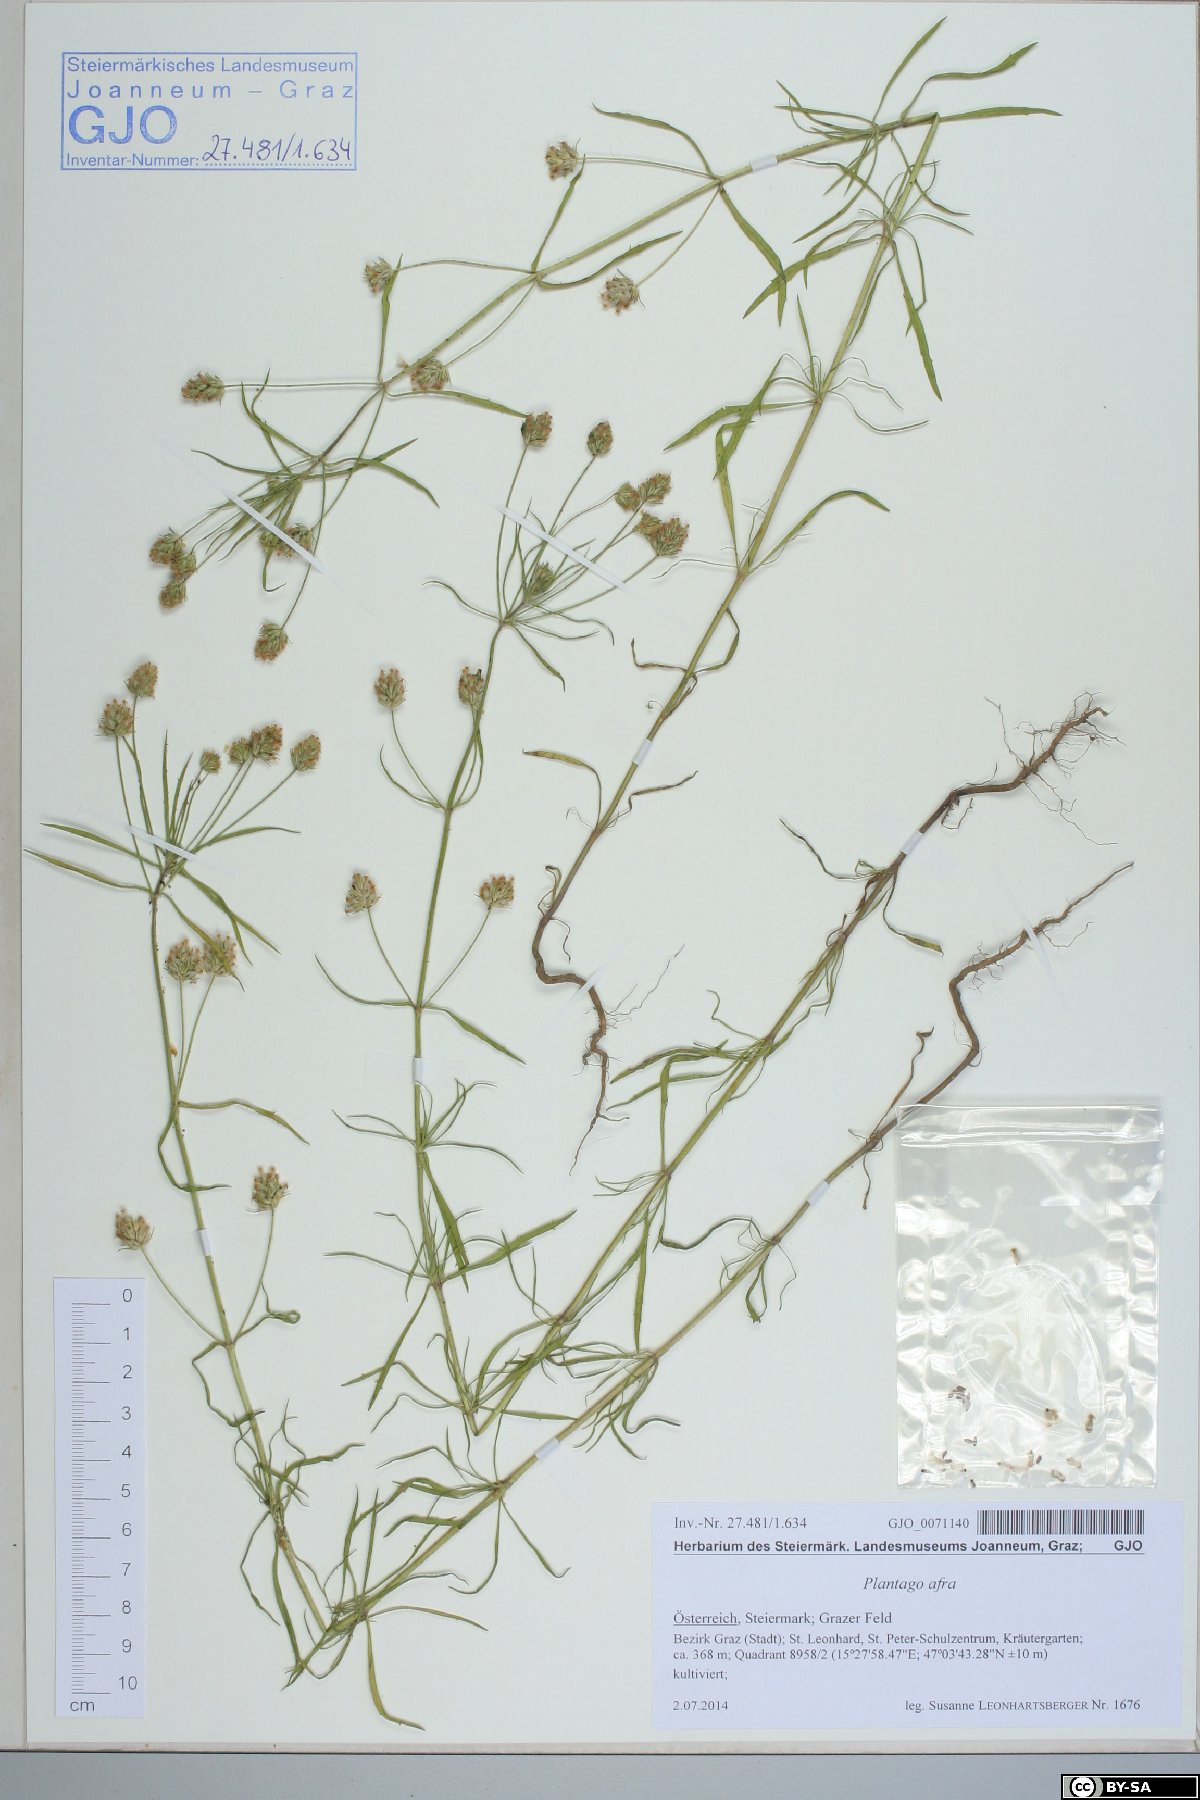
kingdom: Plantae
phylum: Tracheophyta
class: Magnoliopsida
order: Lamiales
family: Plantaginaceae
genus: Plantago
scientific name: Plantago afra
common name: Glandular plantain
